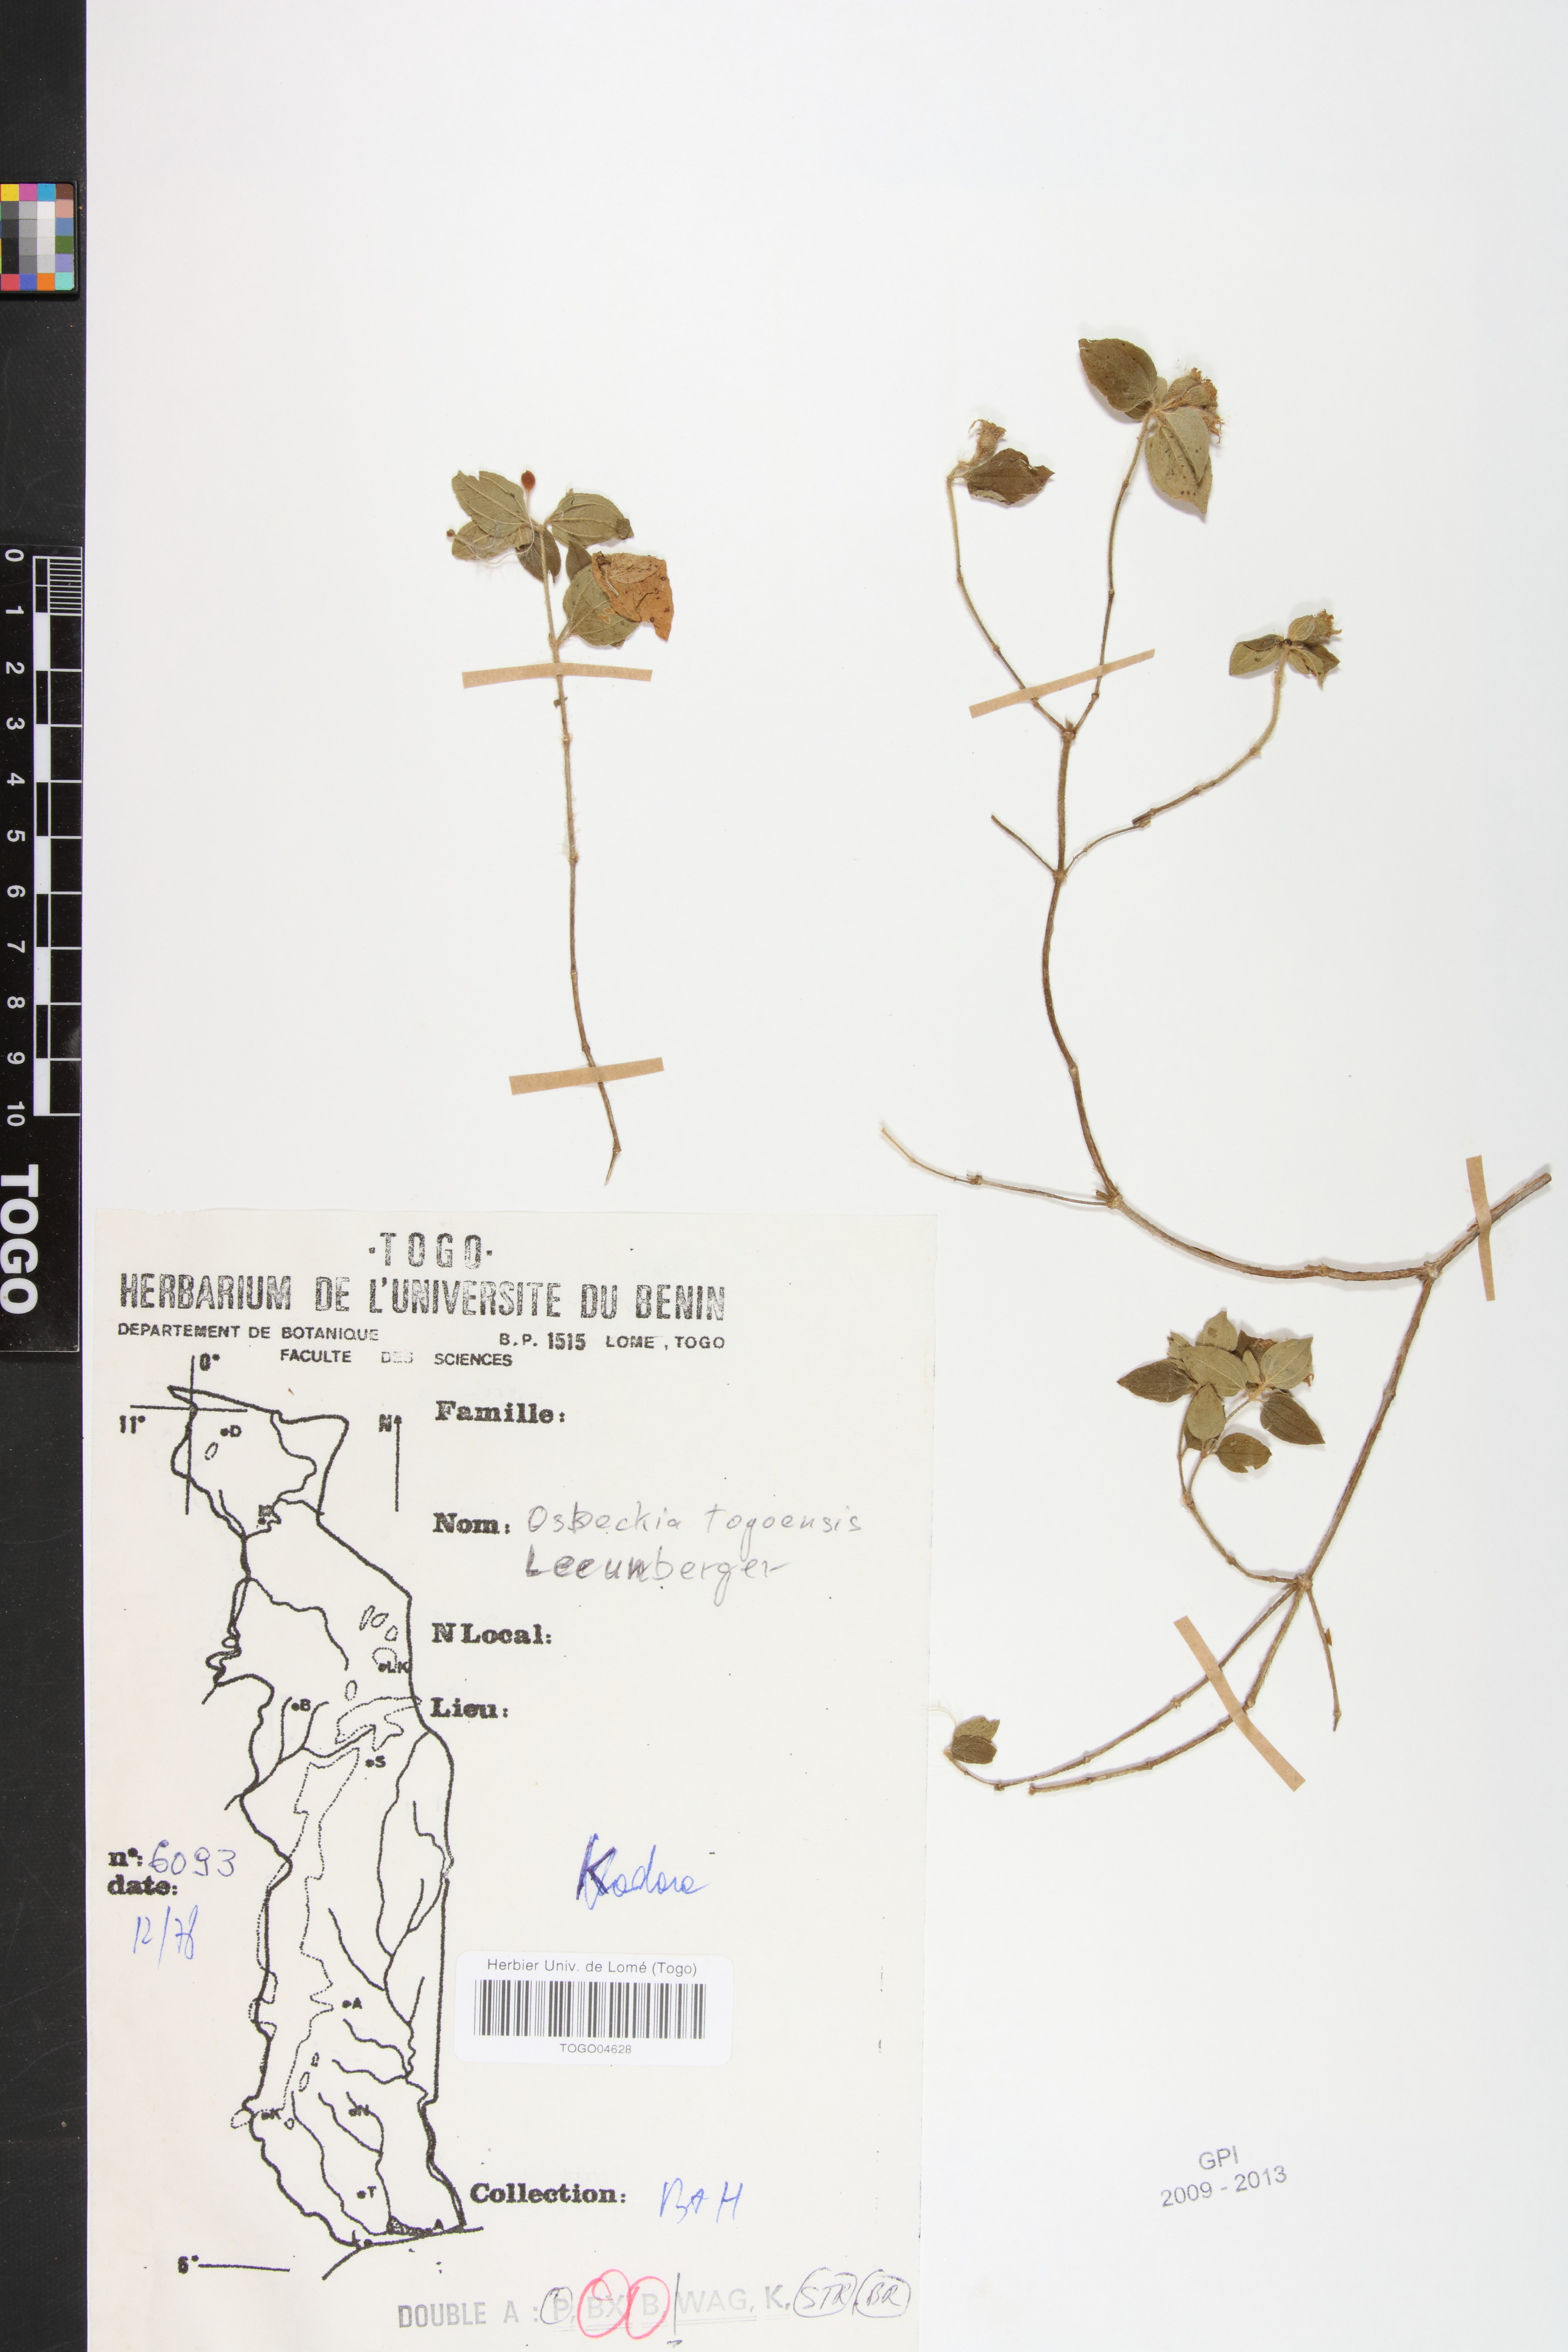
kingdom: Plantae
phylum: Tracheophyta
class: Magnoliopsida
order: Myrtales
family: Melastomataceae
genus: Nerophila
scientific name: Nerophila togoensis
